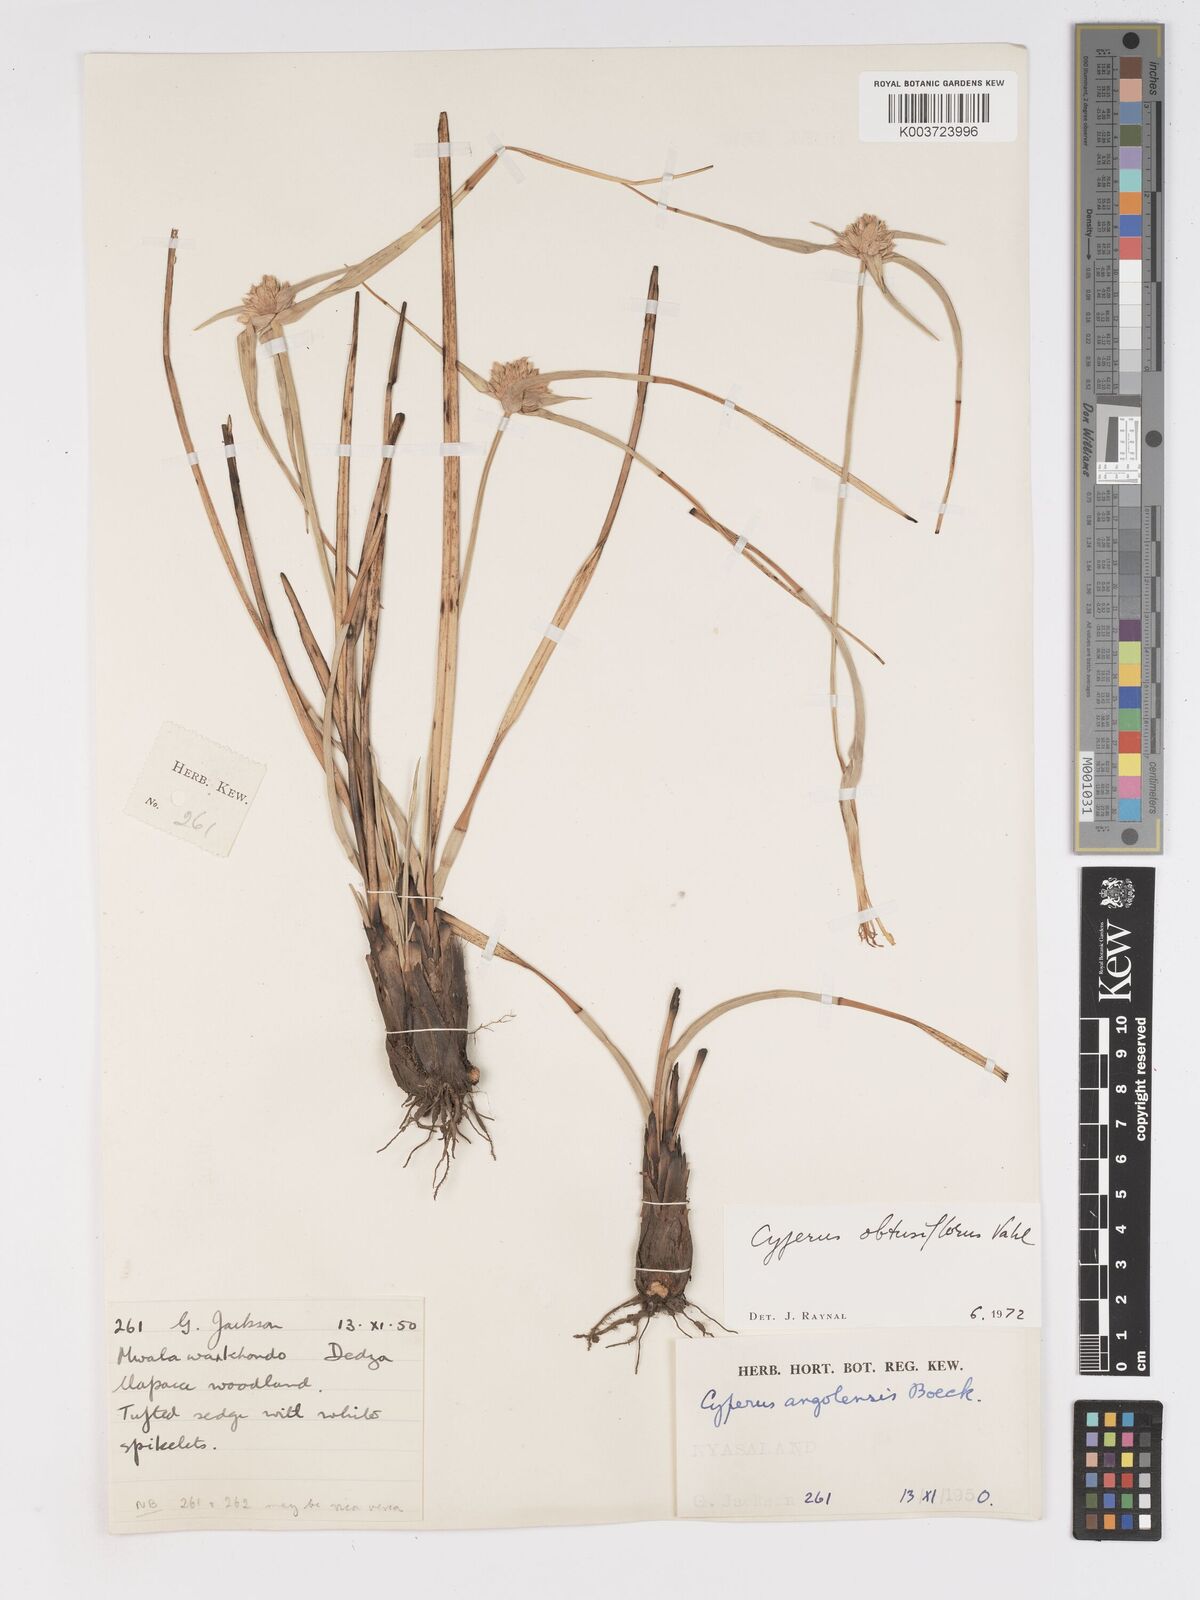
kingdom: Plantae
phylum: Tracheophyta
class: Liliopsida
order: Poales
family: Cyperaceae
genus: Cyperus
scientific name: Cyperus niveus
